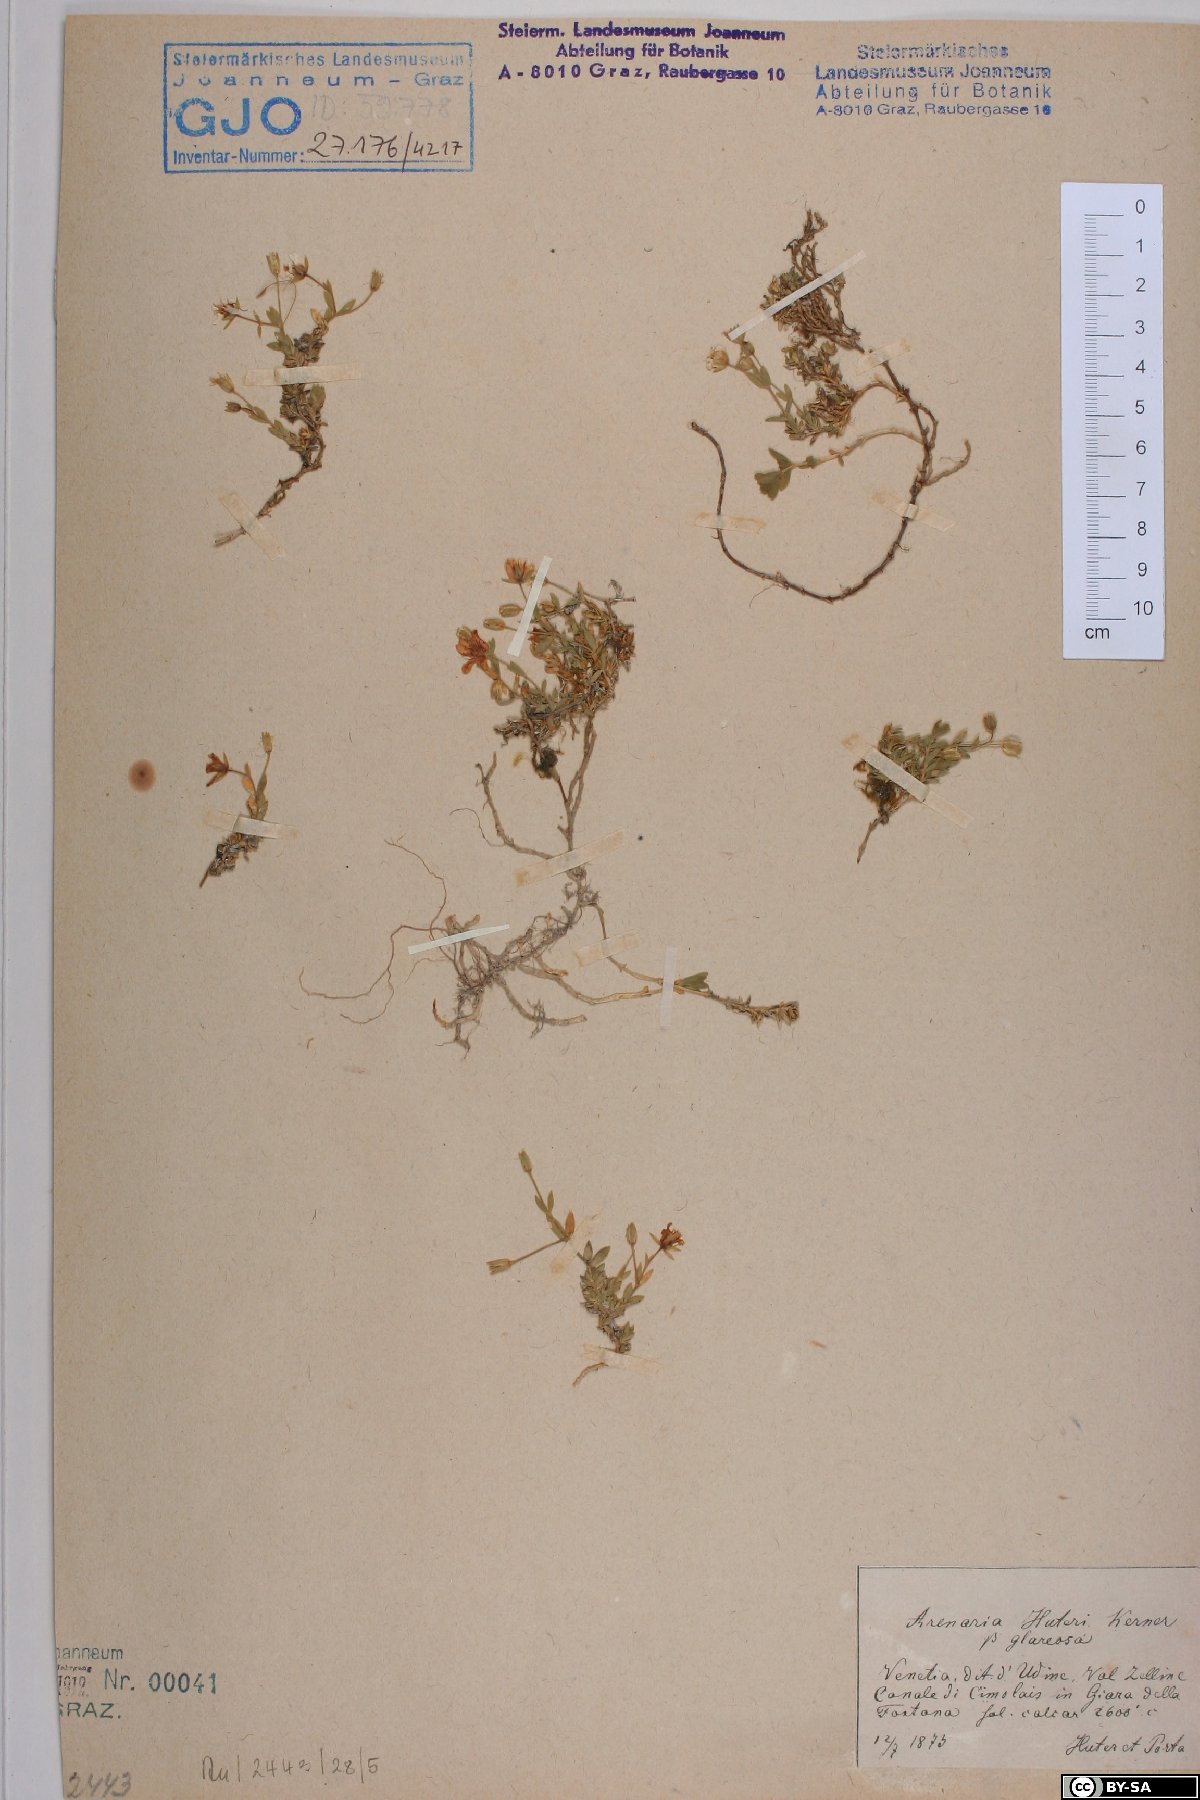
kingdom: Plantae
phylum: Tracheophyta
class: Magnoliopsida
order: Caryophyllales
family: Caryophyllaceae
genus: Arenaria
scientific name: Arenaria huteri
